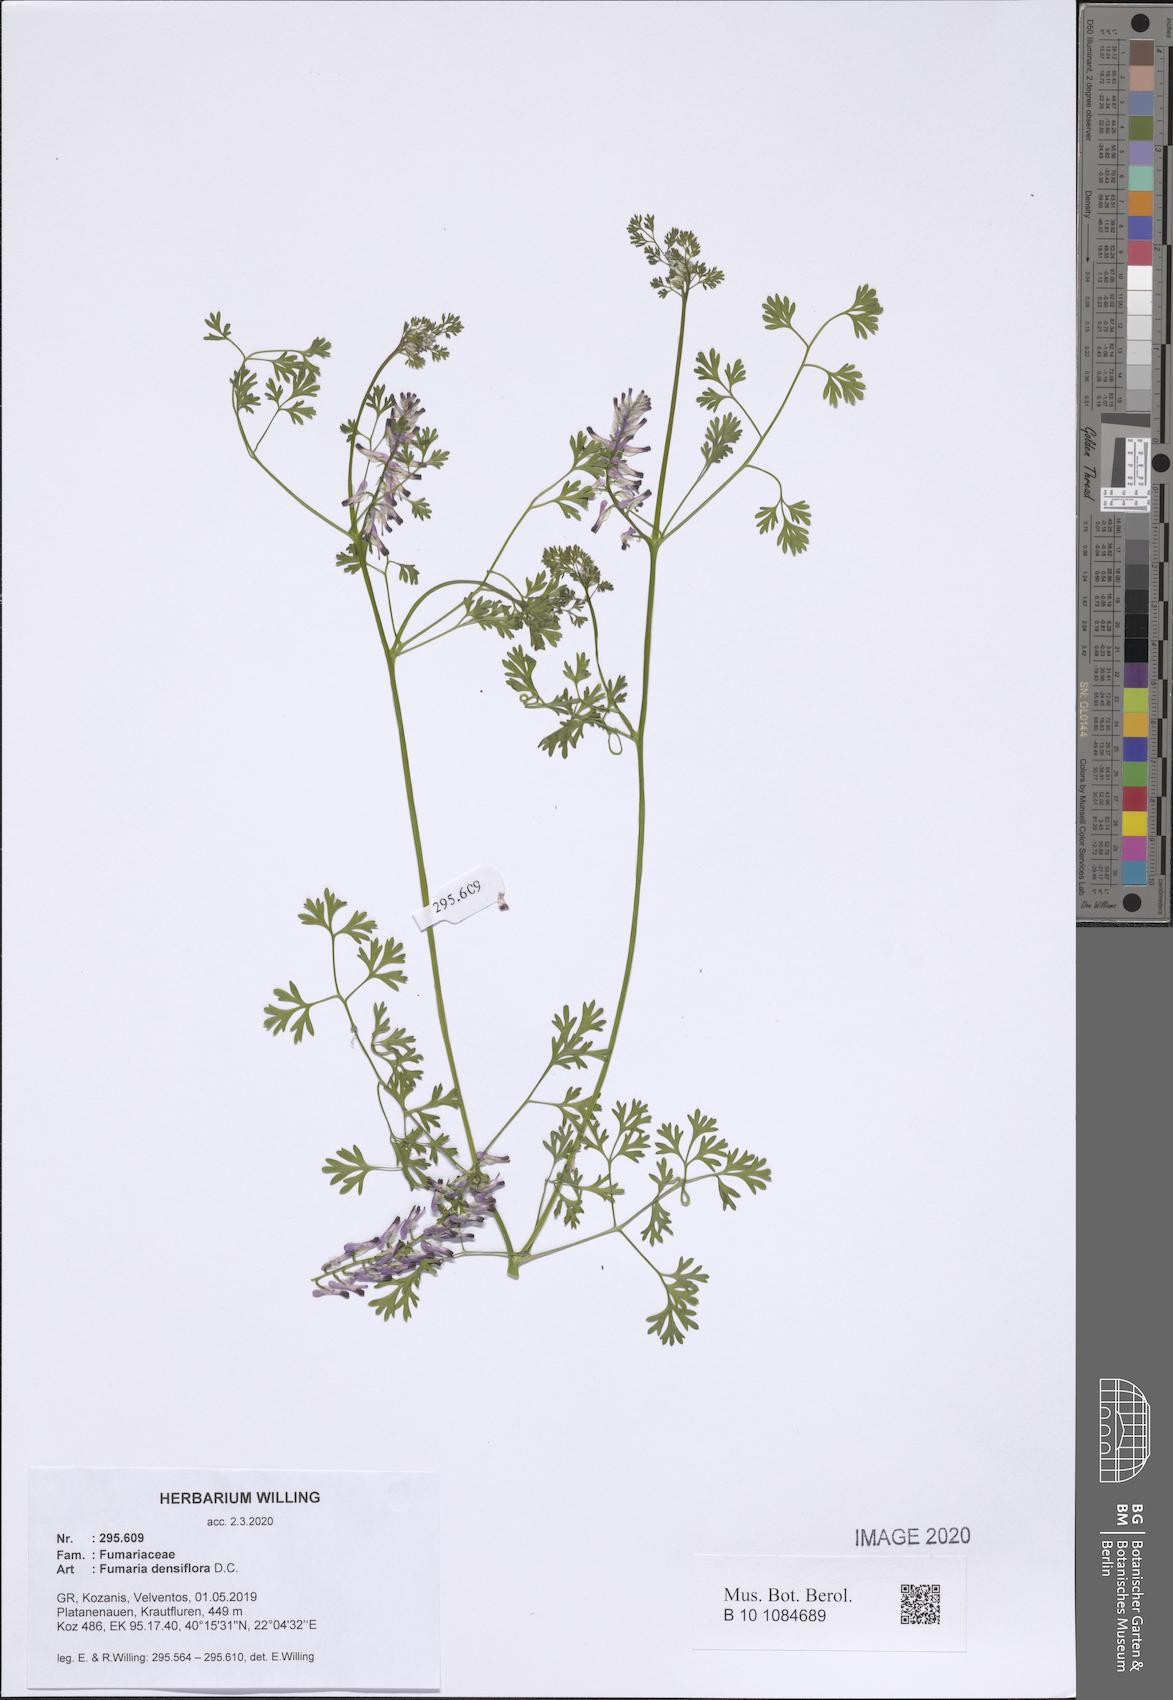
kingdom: Plantae
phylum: Tracheophyta
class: Magnoliopsida
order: Ranunculales
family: Papaveraceae
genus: Fumaria
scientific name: Fumaria densiflora
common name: Dense-flowered fumitory
